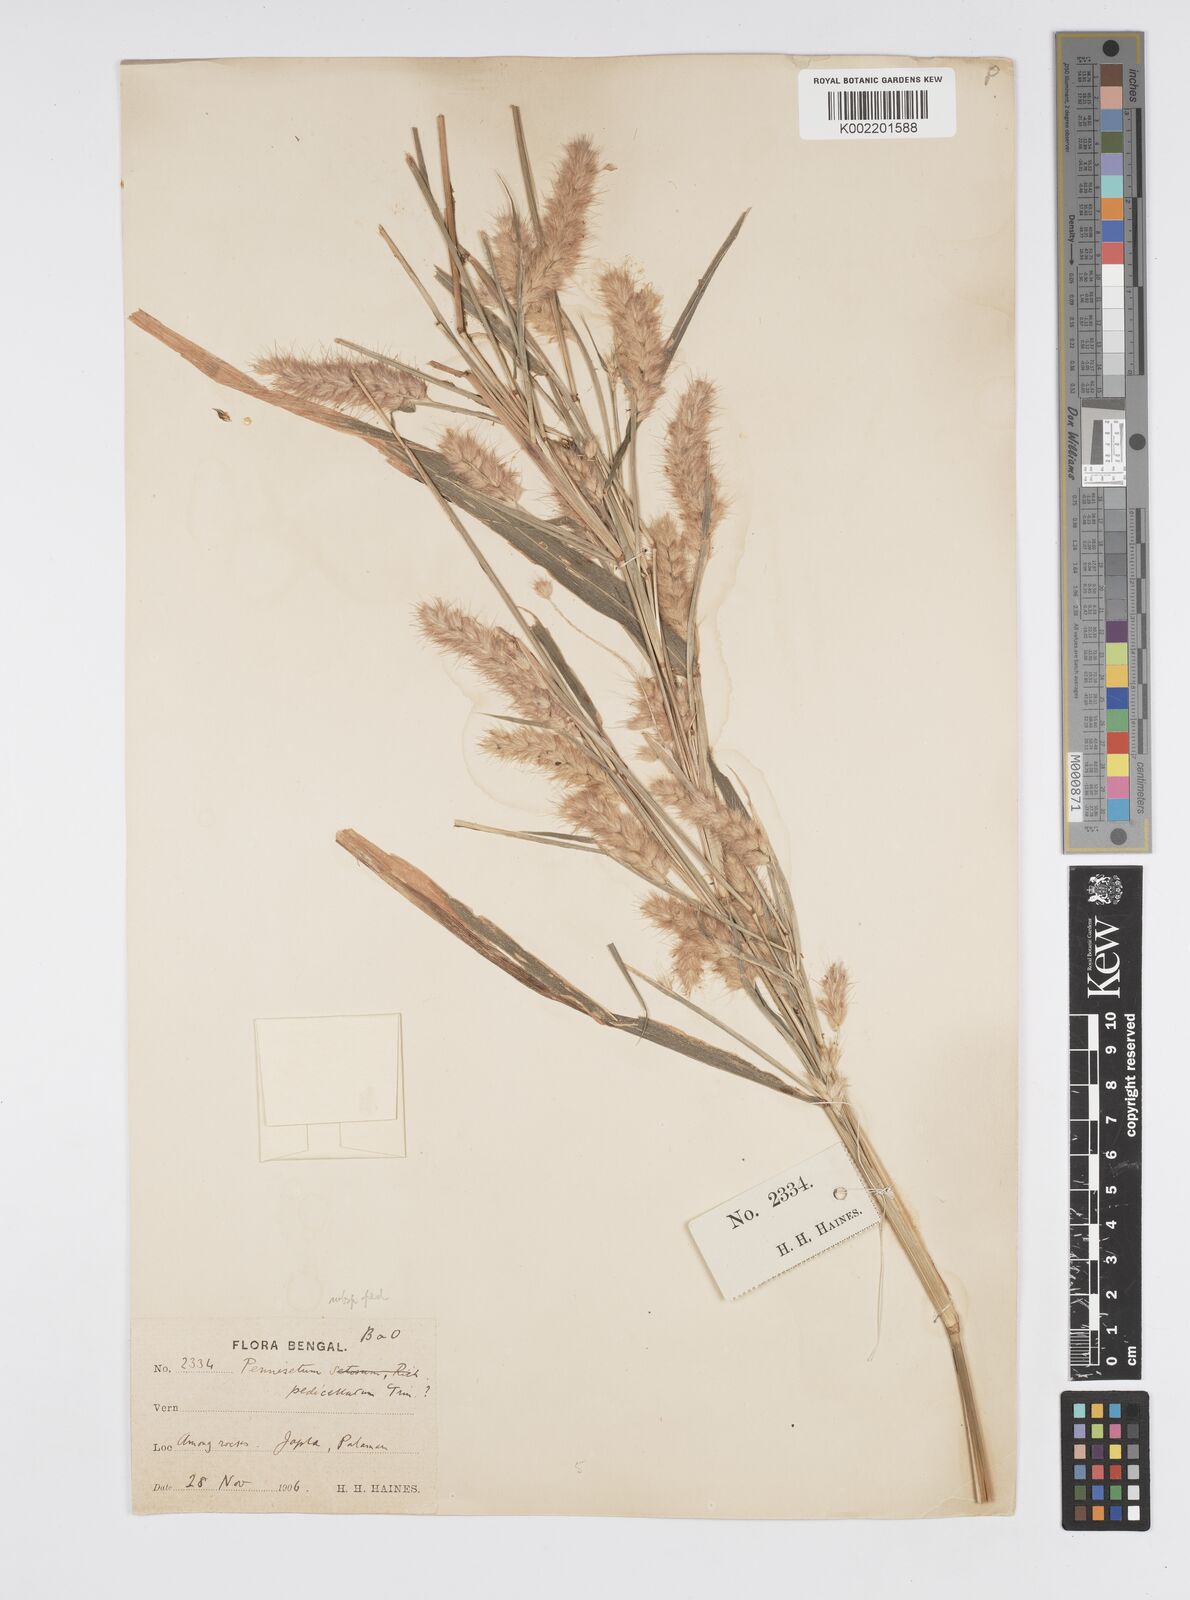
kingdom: Plantae
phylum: Tracheophyta
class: Liliopsida
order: Poales
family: Poaceae
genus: Cenchrus
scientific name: Cenchrus pedicellatus
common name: Hairy fountain grass
